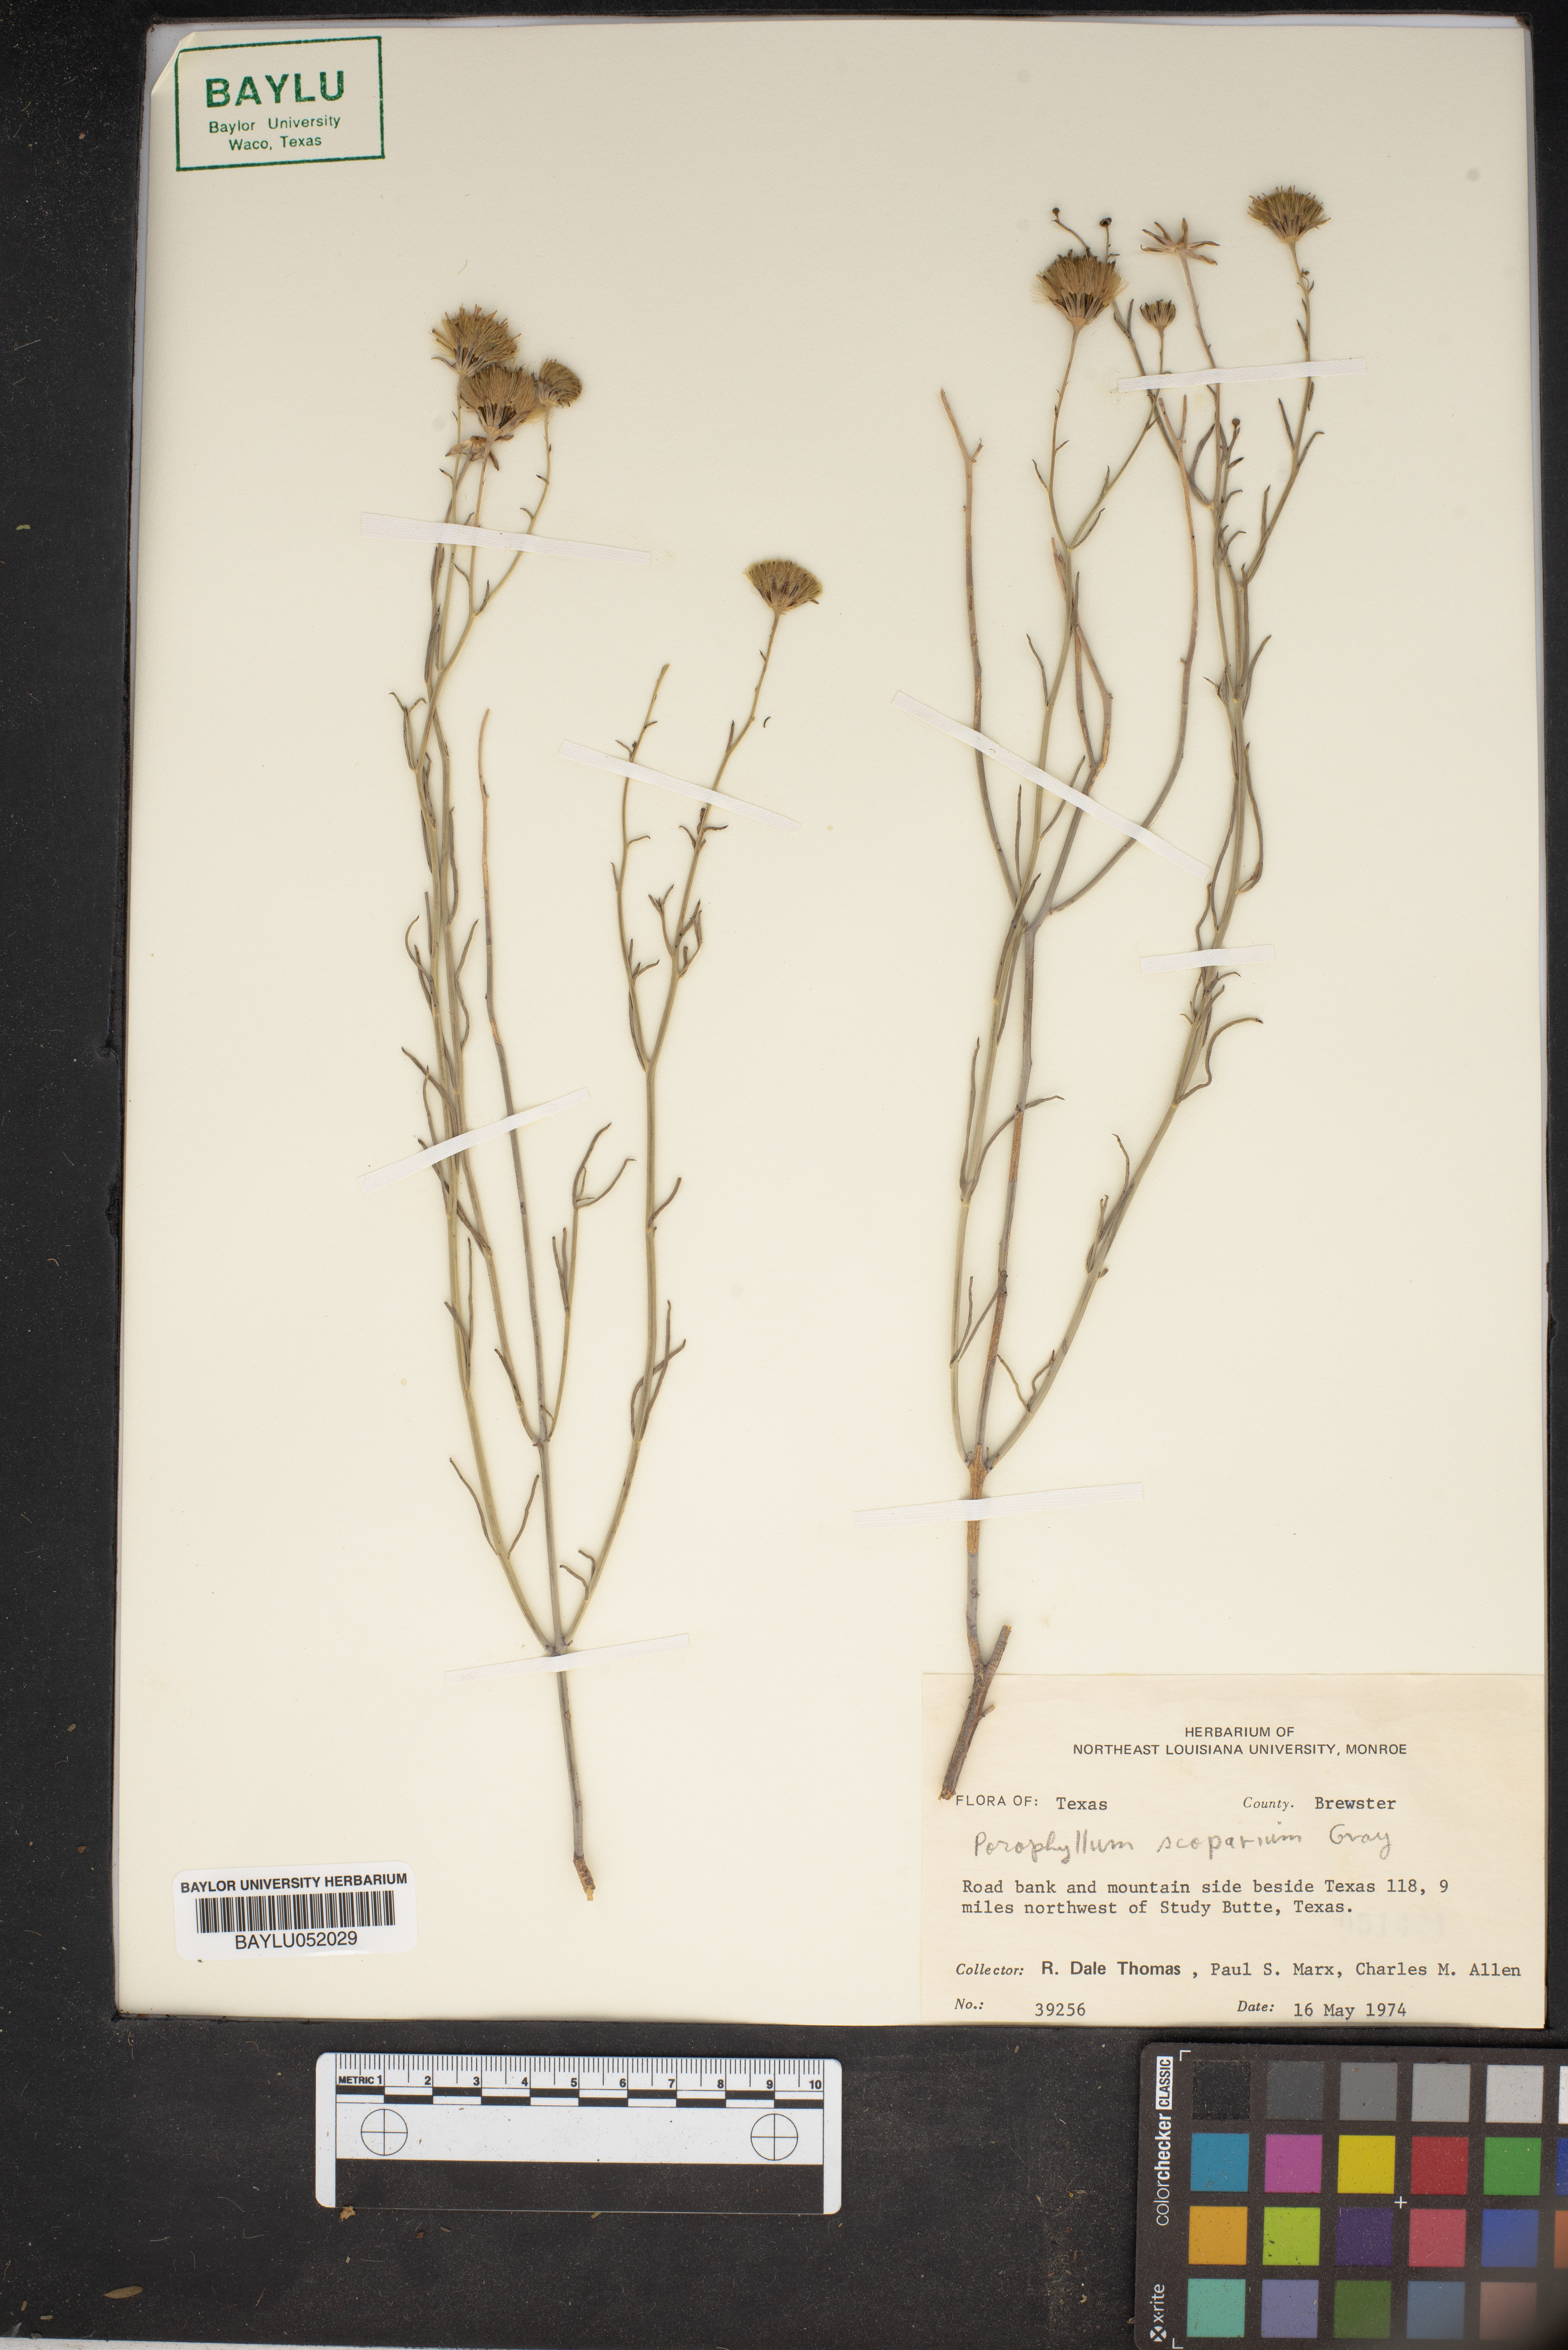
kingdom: Plantae
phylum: Tracheophyta
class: Magnoliopsida
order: Asterales
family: Asteraceae
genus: Porophyllum
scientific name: Porophyllum scoparium
